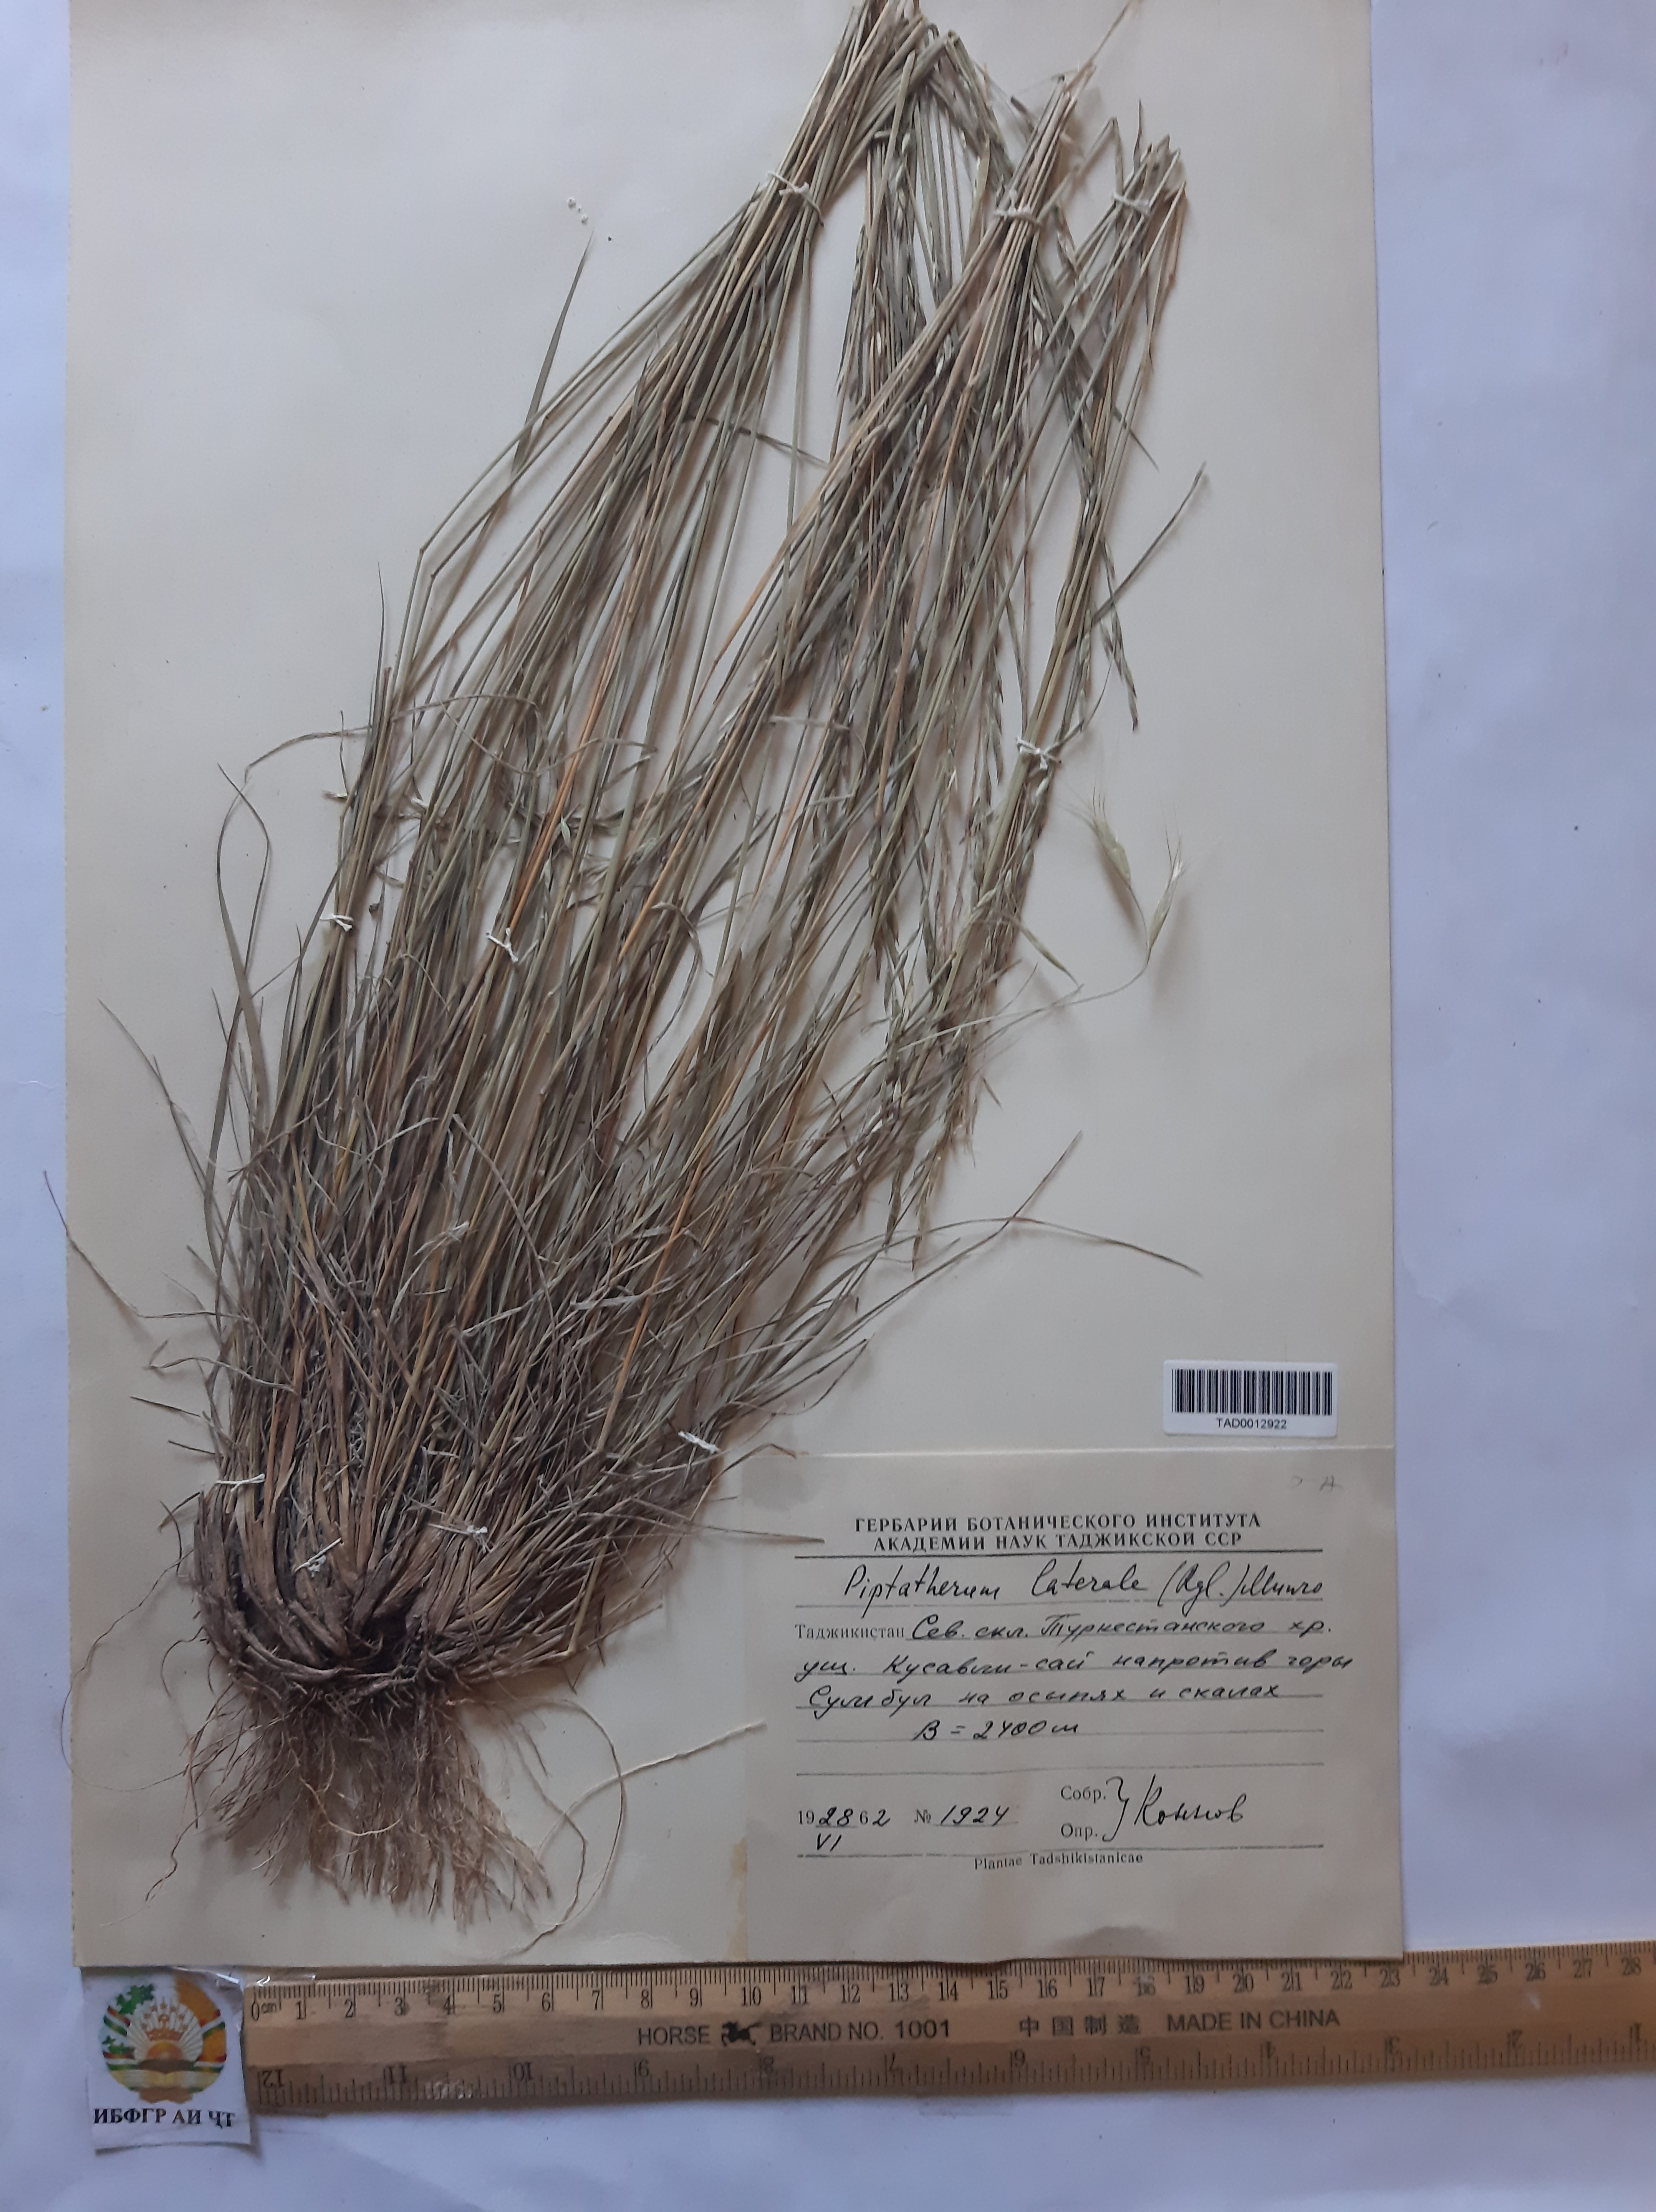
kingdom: Plantae
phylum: Tracheophyta
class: Liliopsida
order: Poales
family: Poaceae
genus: Piptatherum
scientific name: Piptatherum laterale
